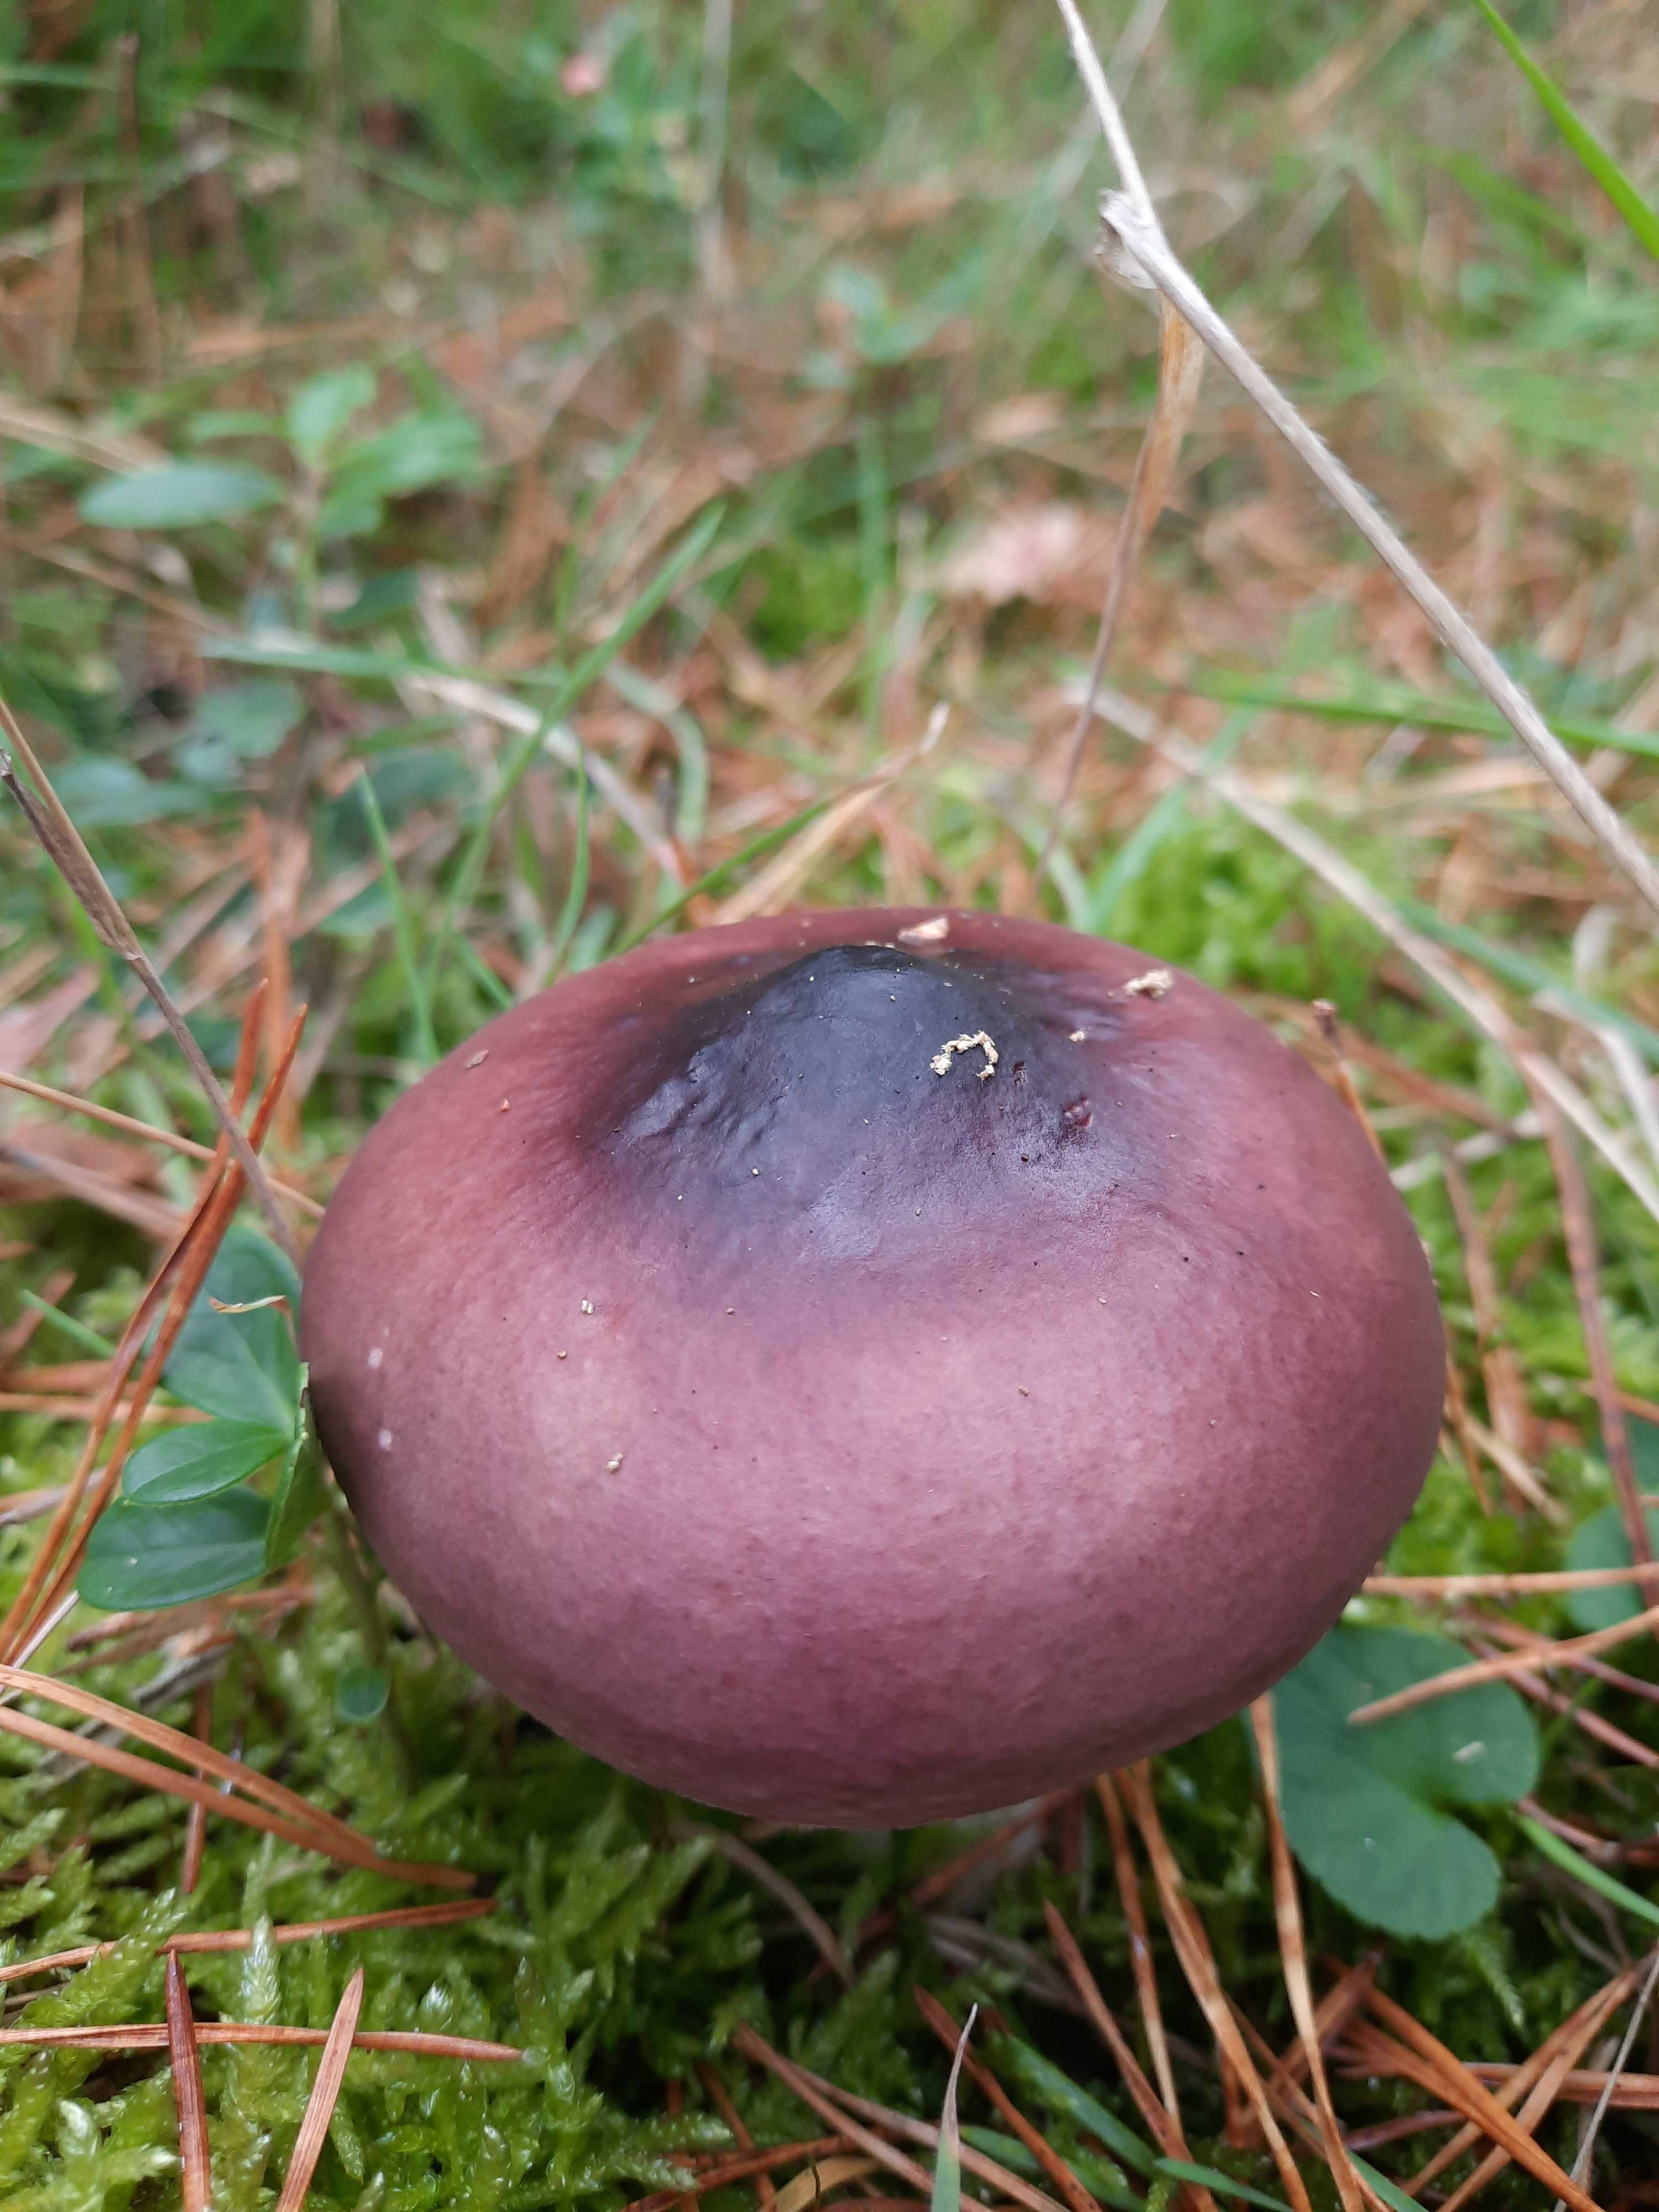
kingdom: Fungi
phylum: Basidiomycota
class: Agaricomycetes
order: Russulales
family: Russulaceae
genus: Russula
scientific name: Russula caerulea
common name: puklet skørhat
